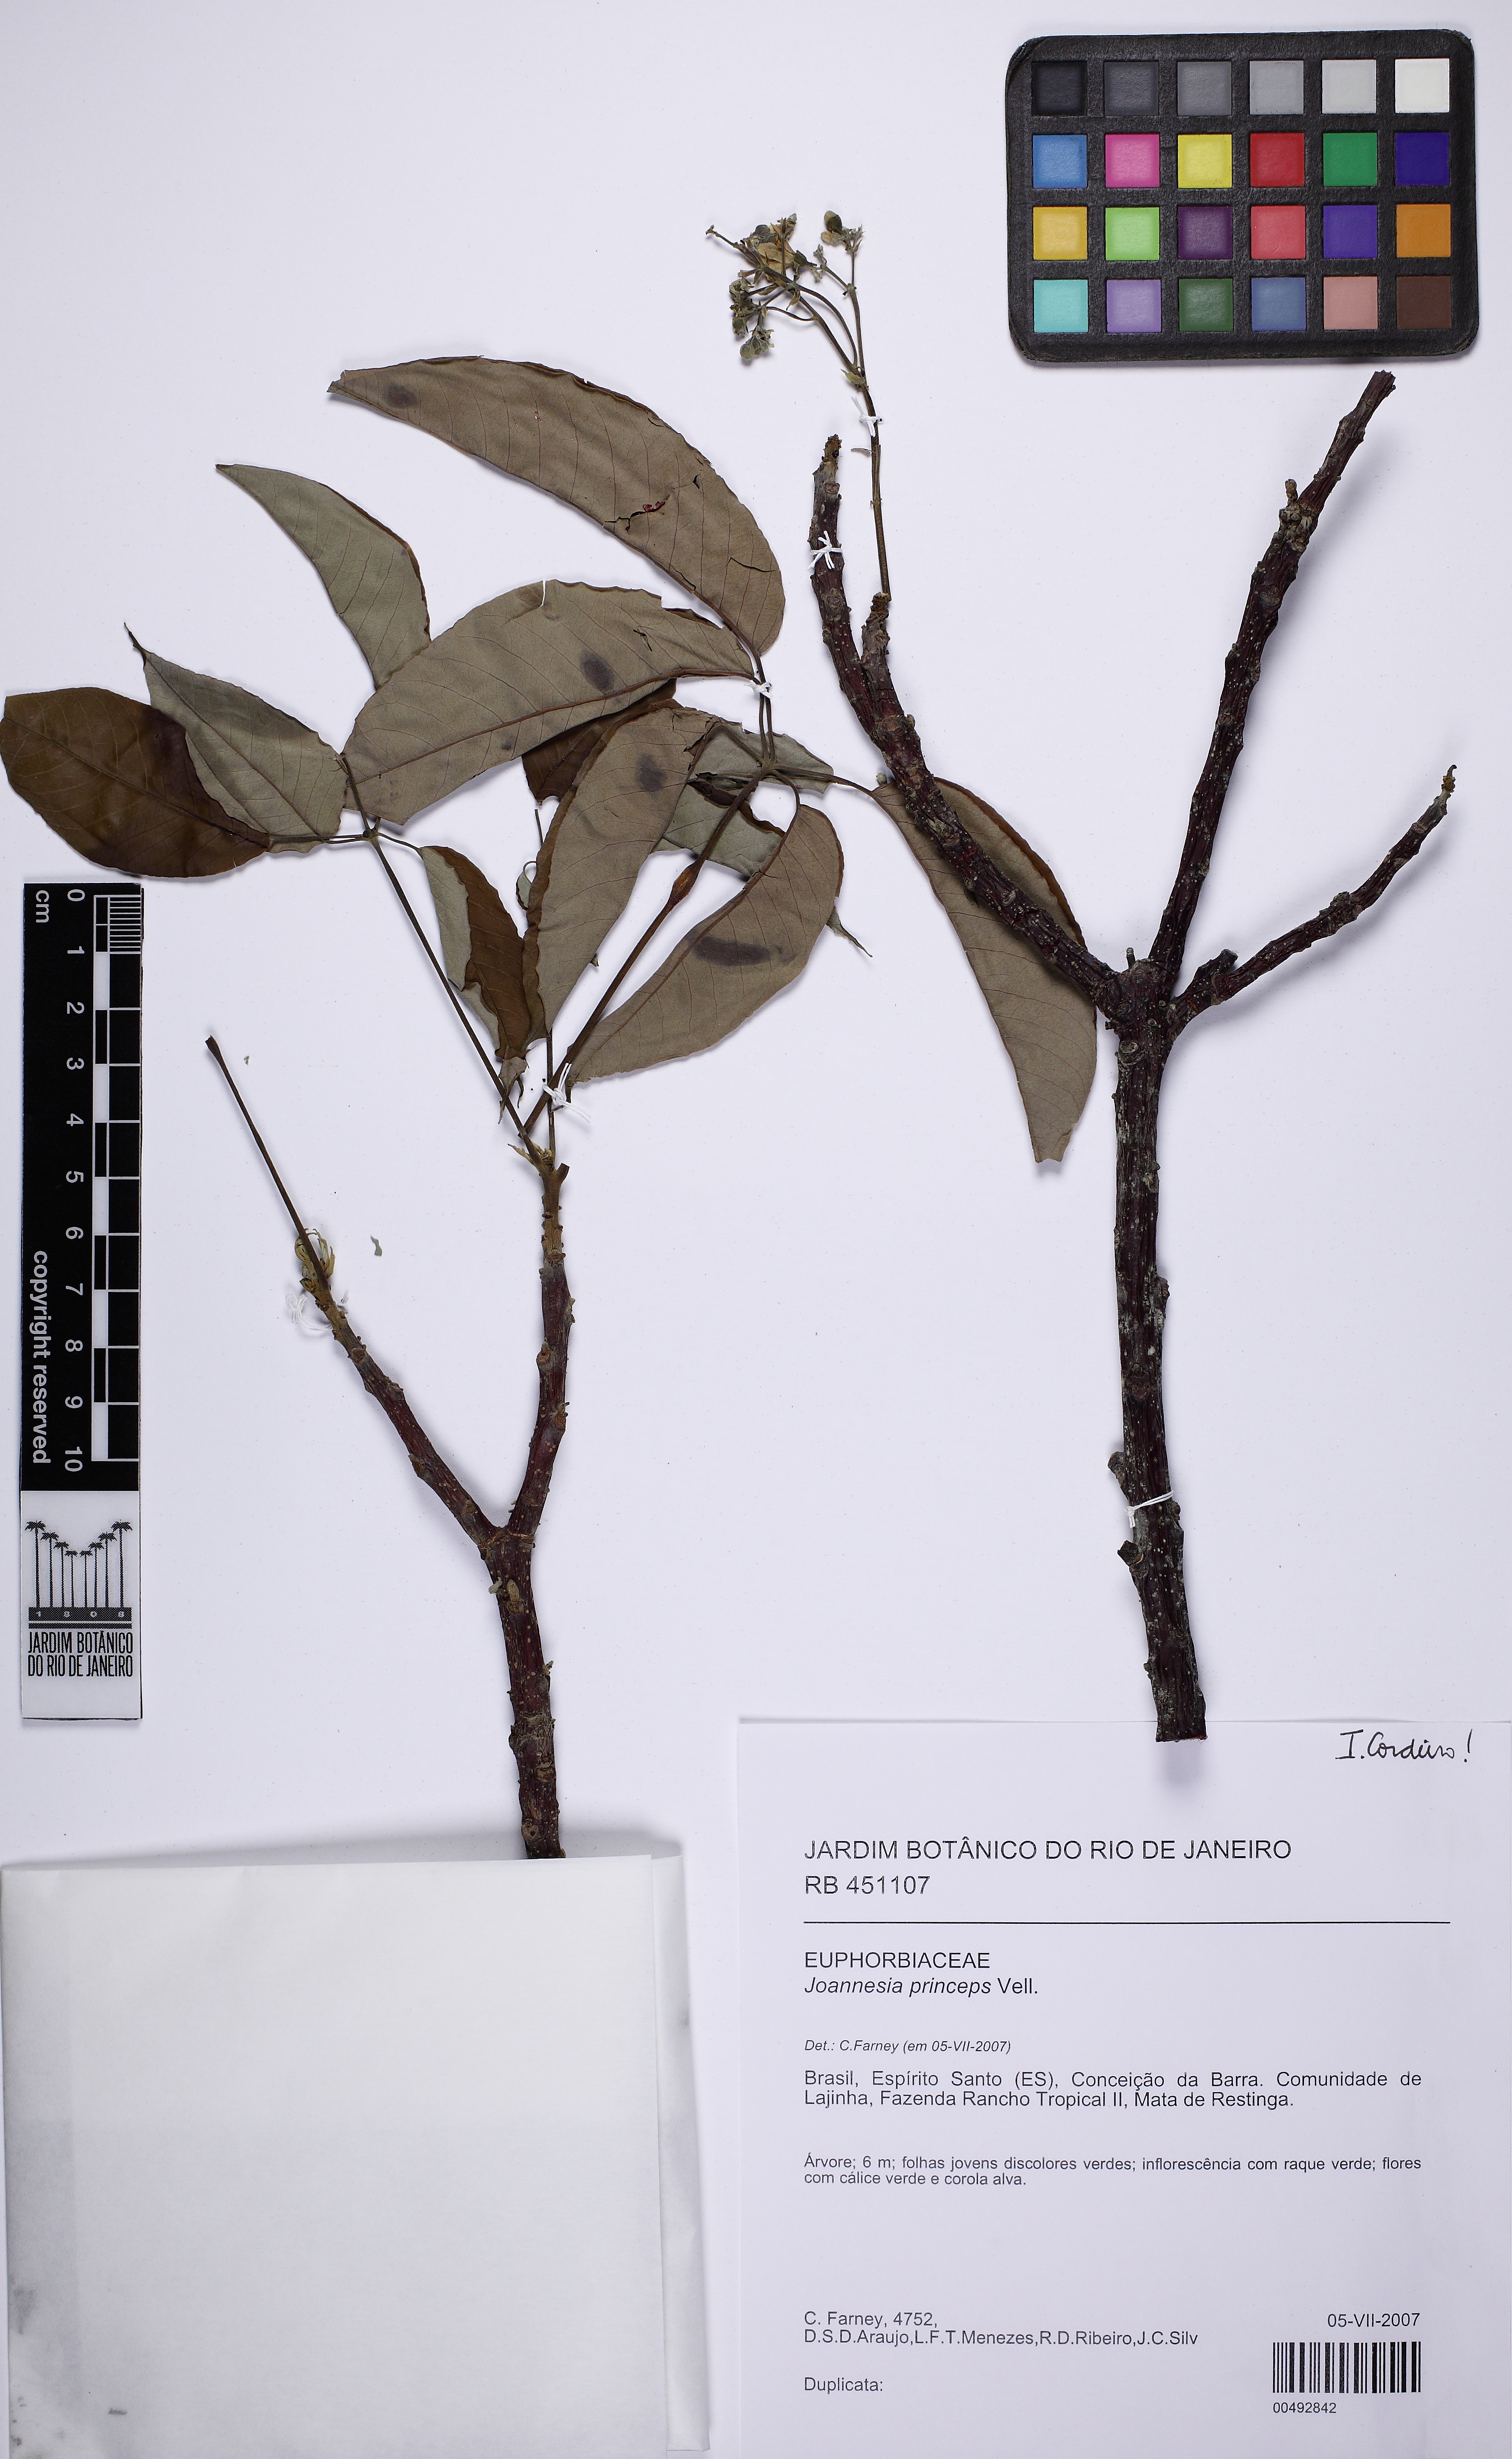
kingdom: Plantae
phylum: Tracheophyta
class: Magnoliopsida
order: Malpighiales
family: Euphorbiaceae
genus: Joannesia
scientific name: Joannesia princeps
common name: Arara nut-tree
